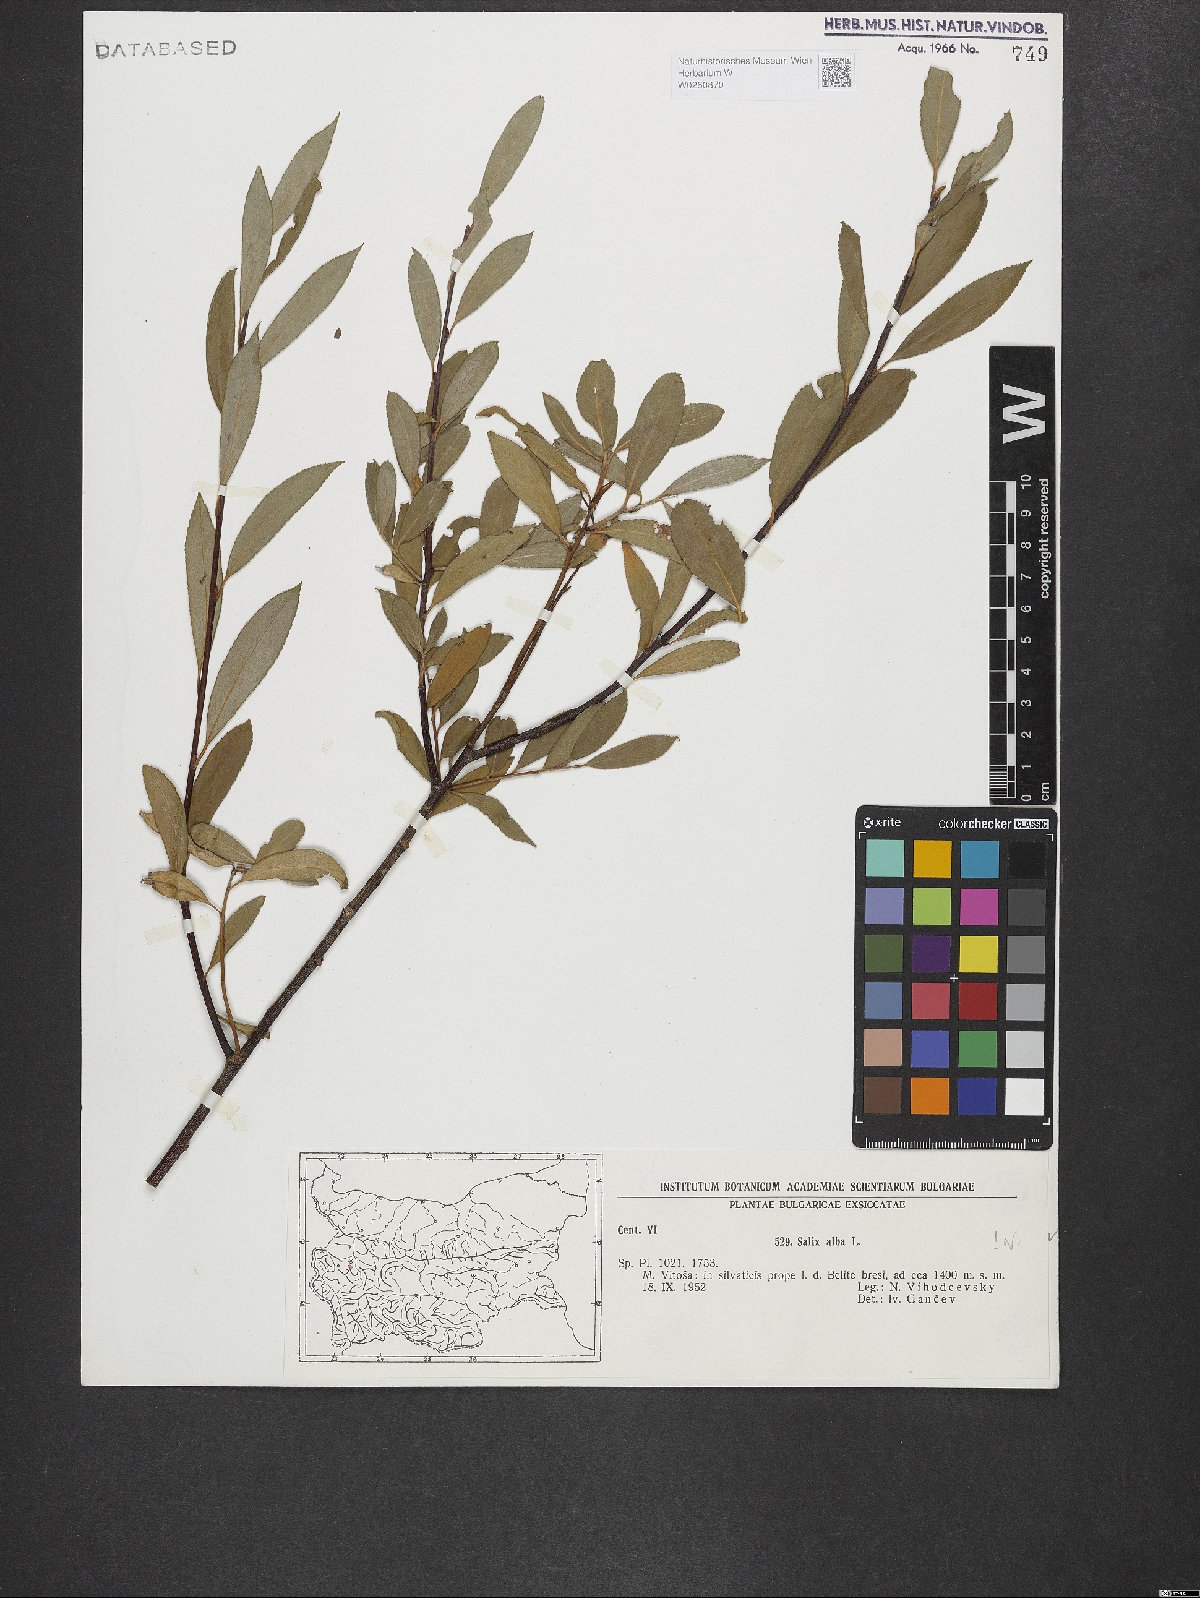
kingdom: Plantae
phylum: Tracheophyta
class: Magnoliopsida
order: Malpighiales
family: Salicaceae
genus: Salix
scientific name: Salix alba
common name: White willow
